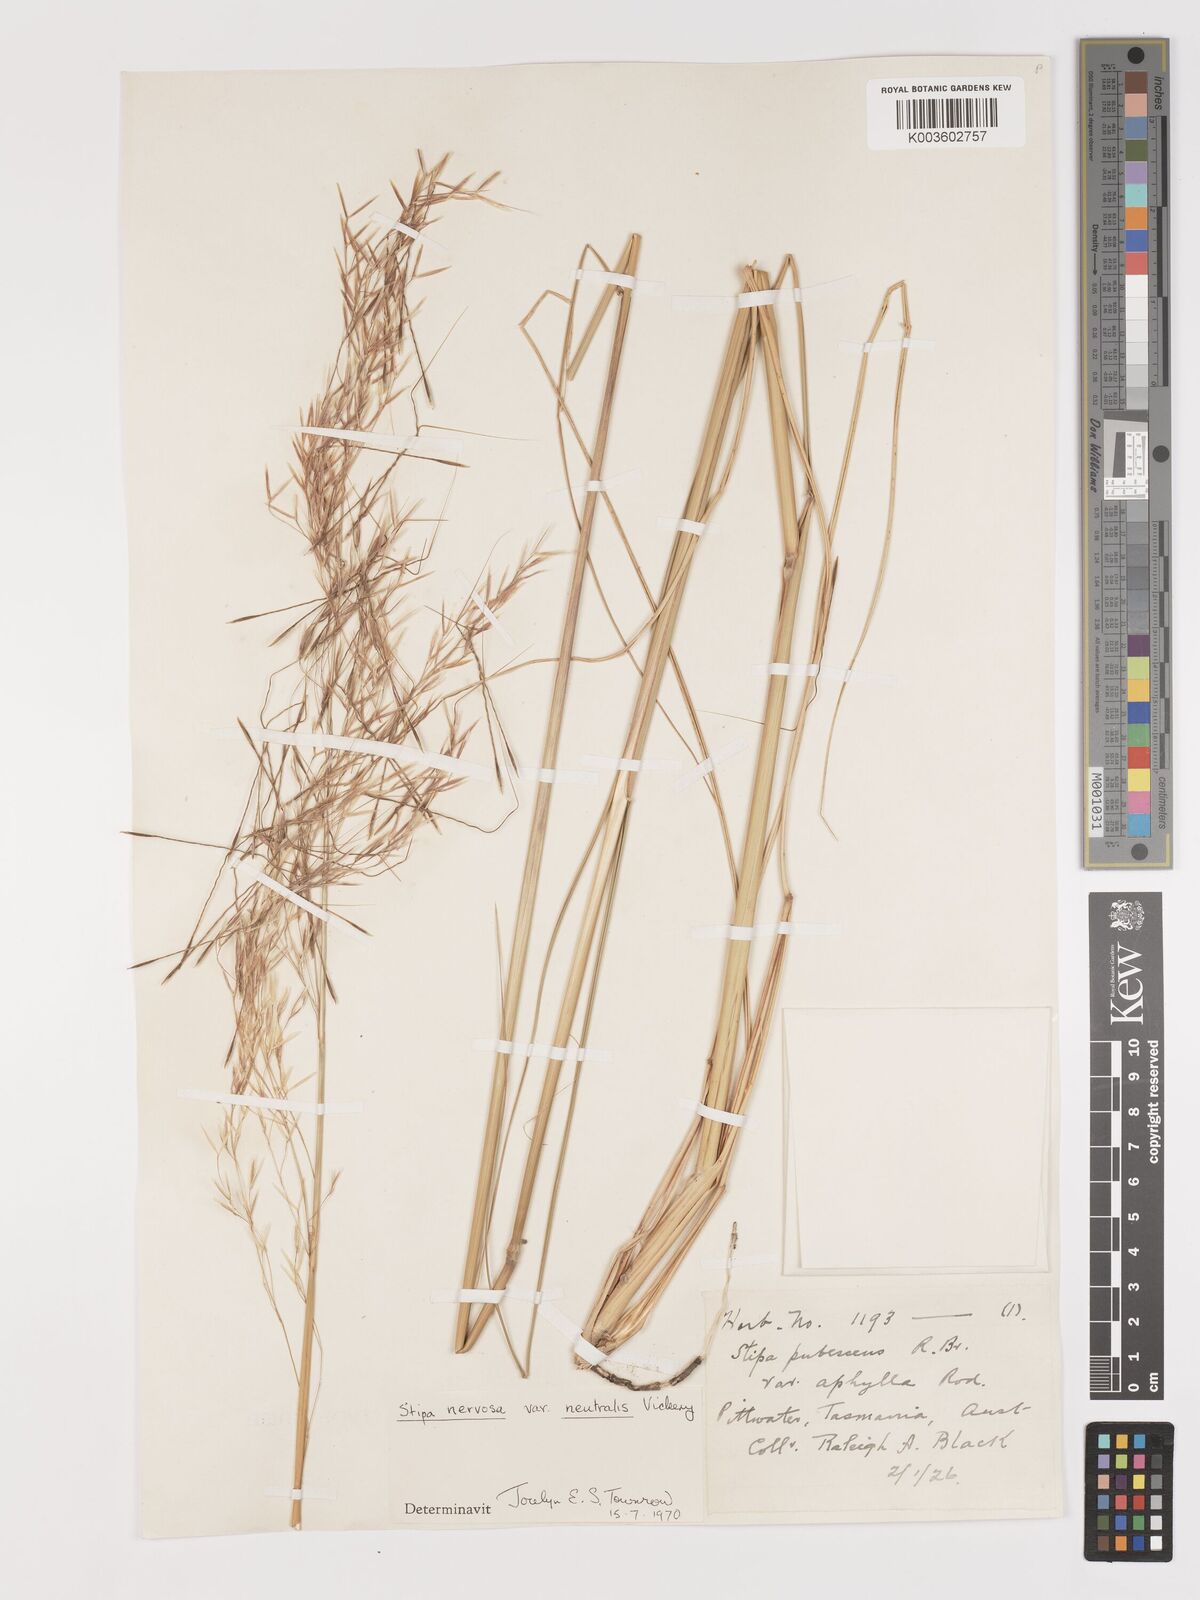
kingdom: Plantae
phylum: Tracheophyta
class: Liliopsida
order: Poales
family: Poaceae
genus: Austrostipa
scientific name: Austrostipa rudis
